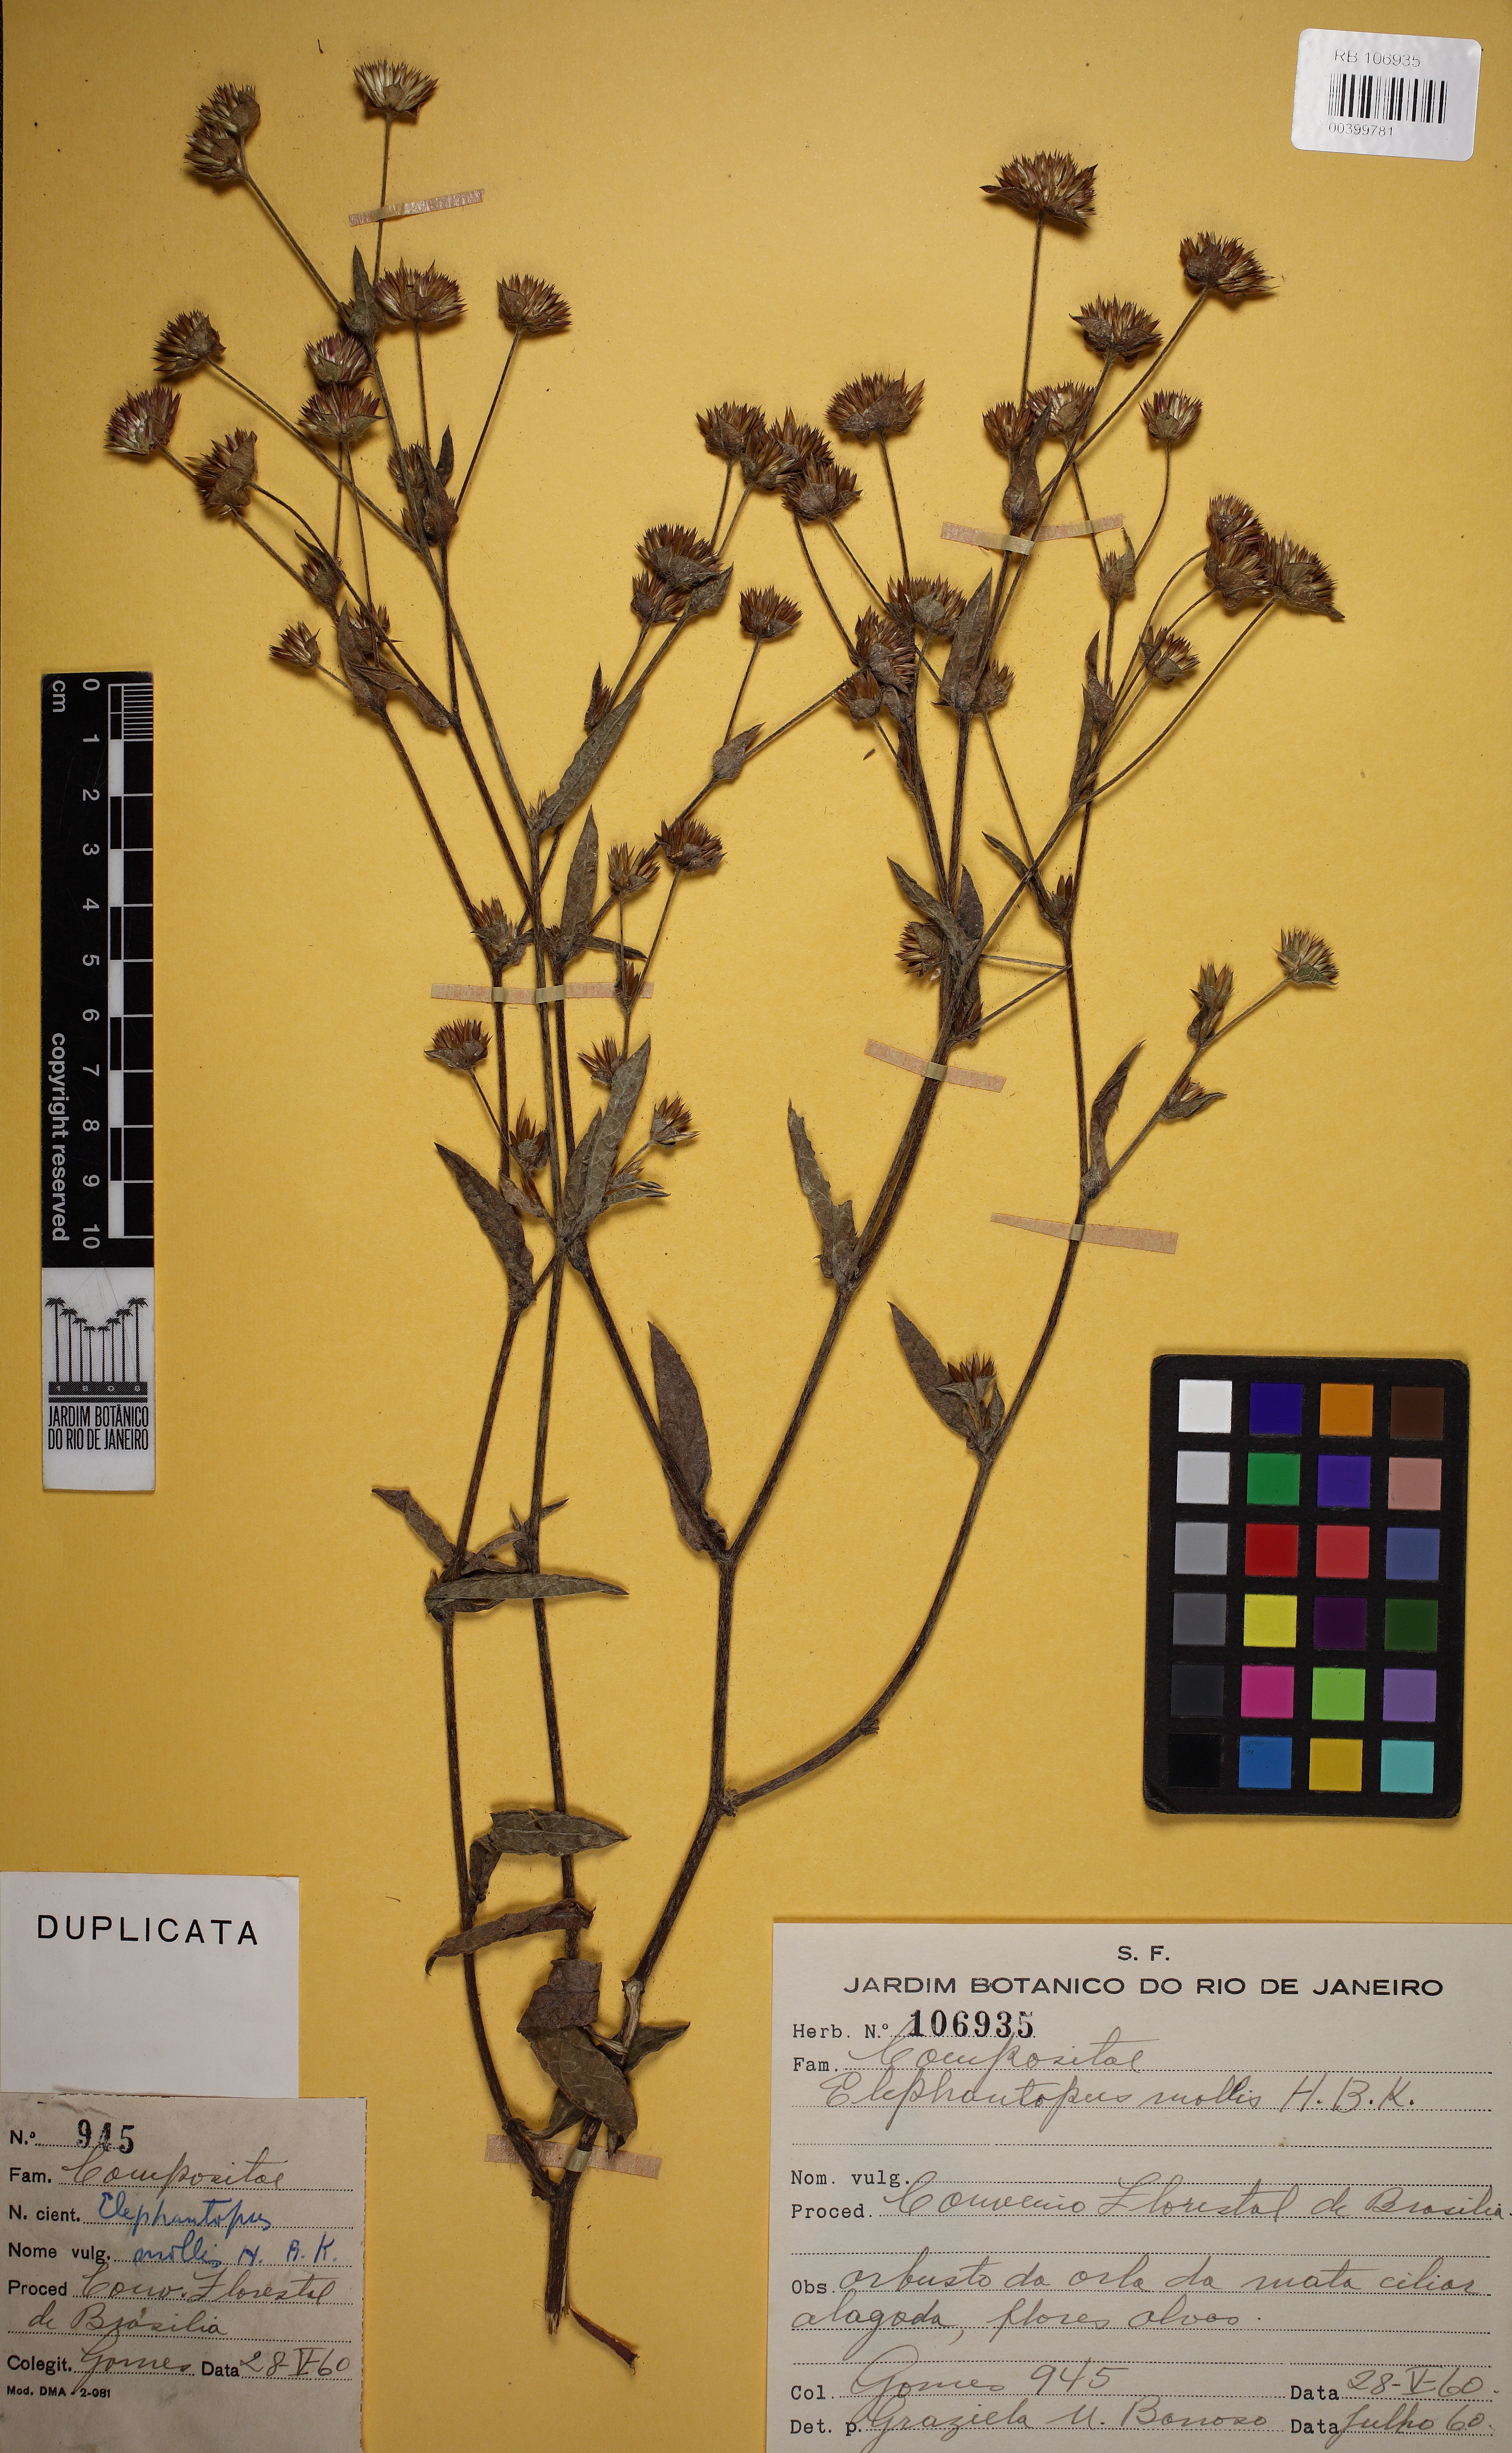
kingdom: Plantae
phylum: Tracheophyta
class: Magnoliopsida
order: Asterales
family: Asteraceae
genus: Elephantopus
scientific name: Elephantopus mollis
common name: Soft elephantsfoot
